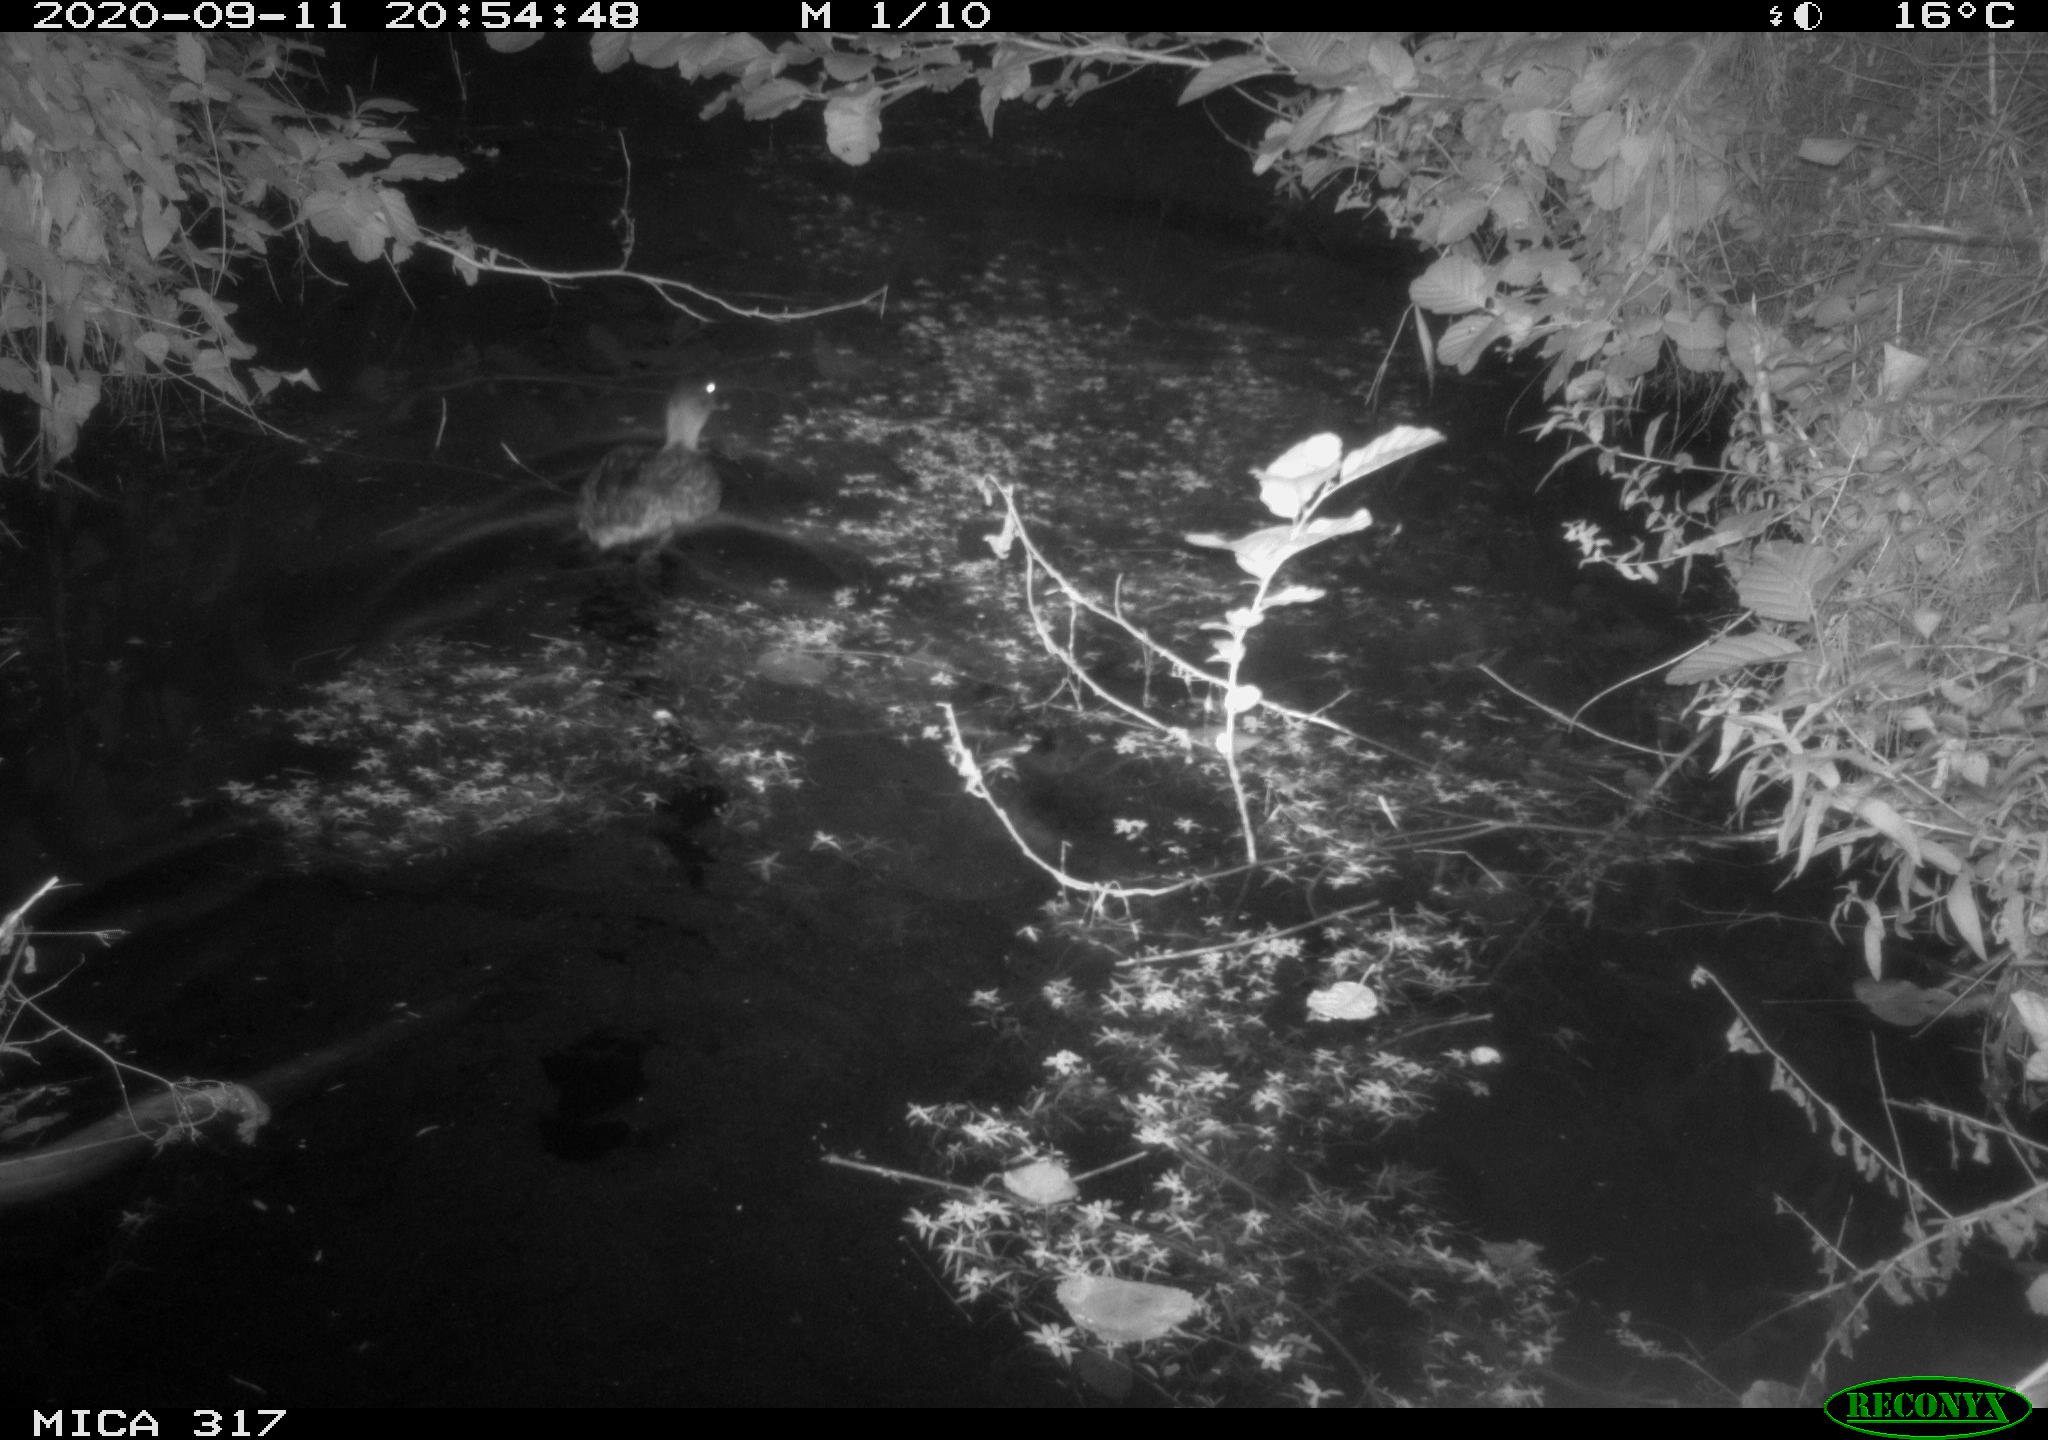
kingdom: Animalia
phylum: Chordata
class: Aves
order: Anseriformes
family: Anatidae
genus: Anas
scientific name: Anas platyrhynchos
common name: Mallard
